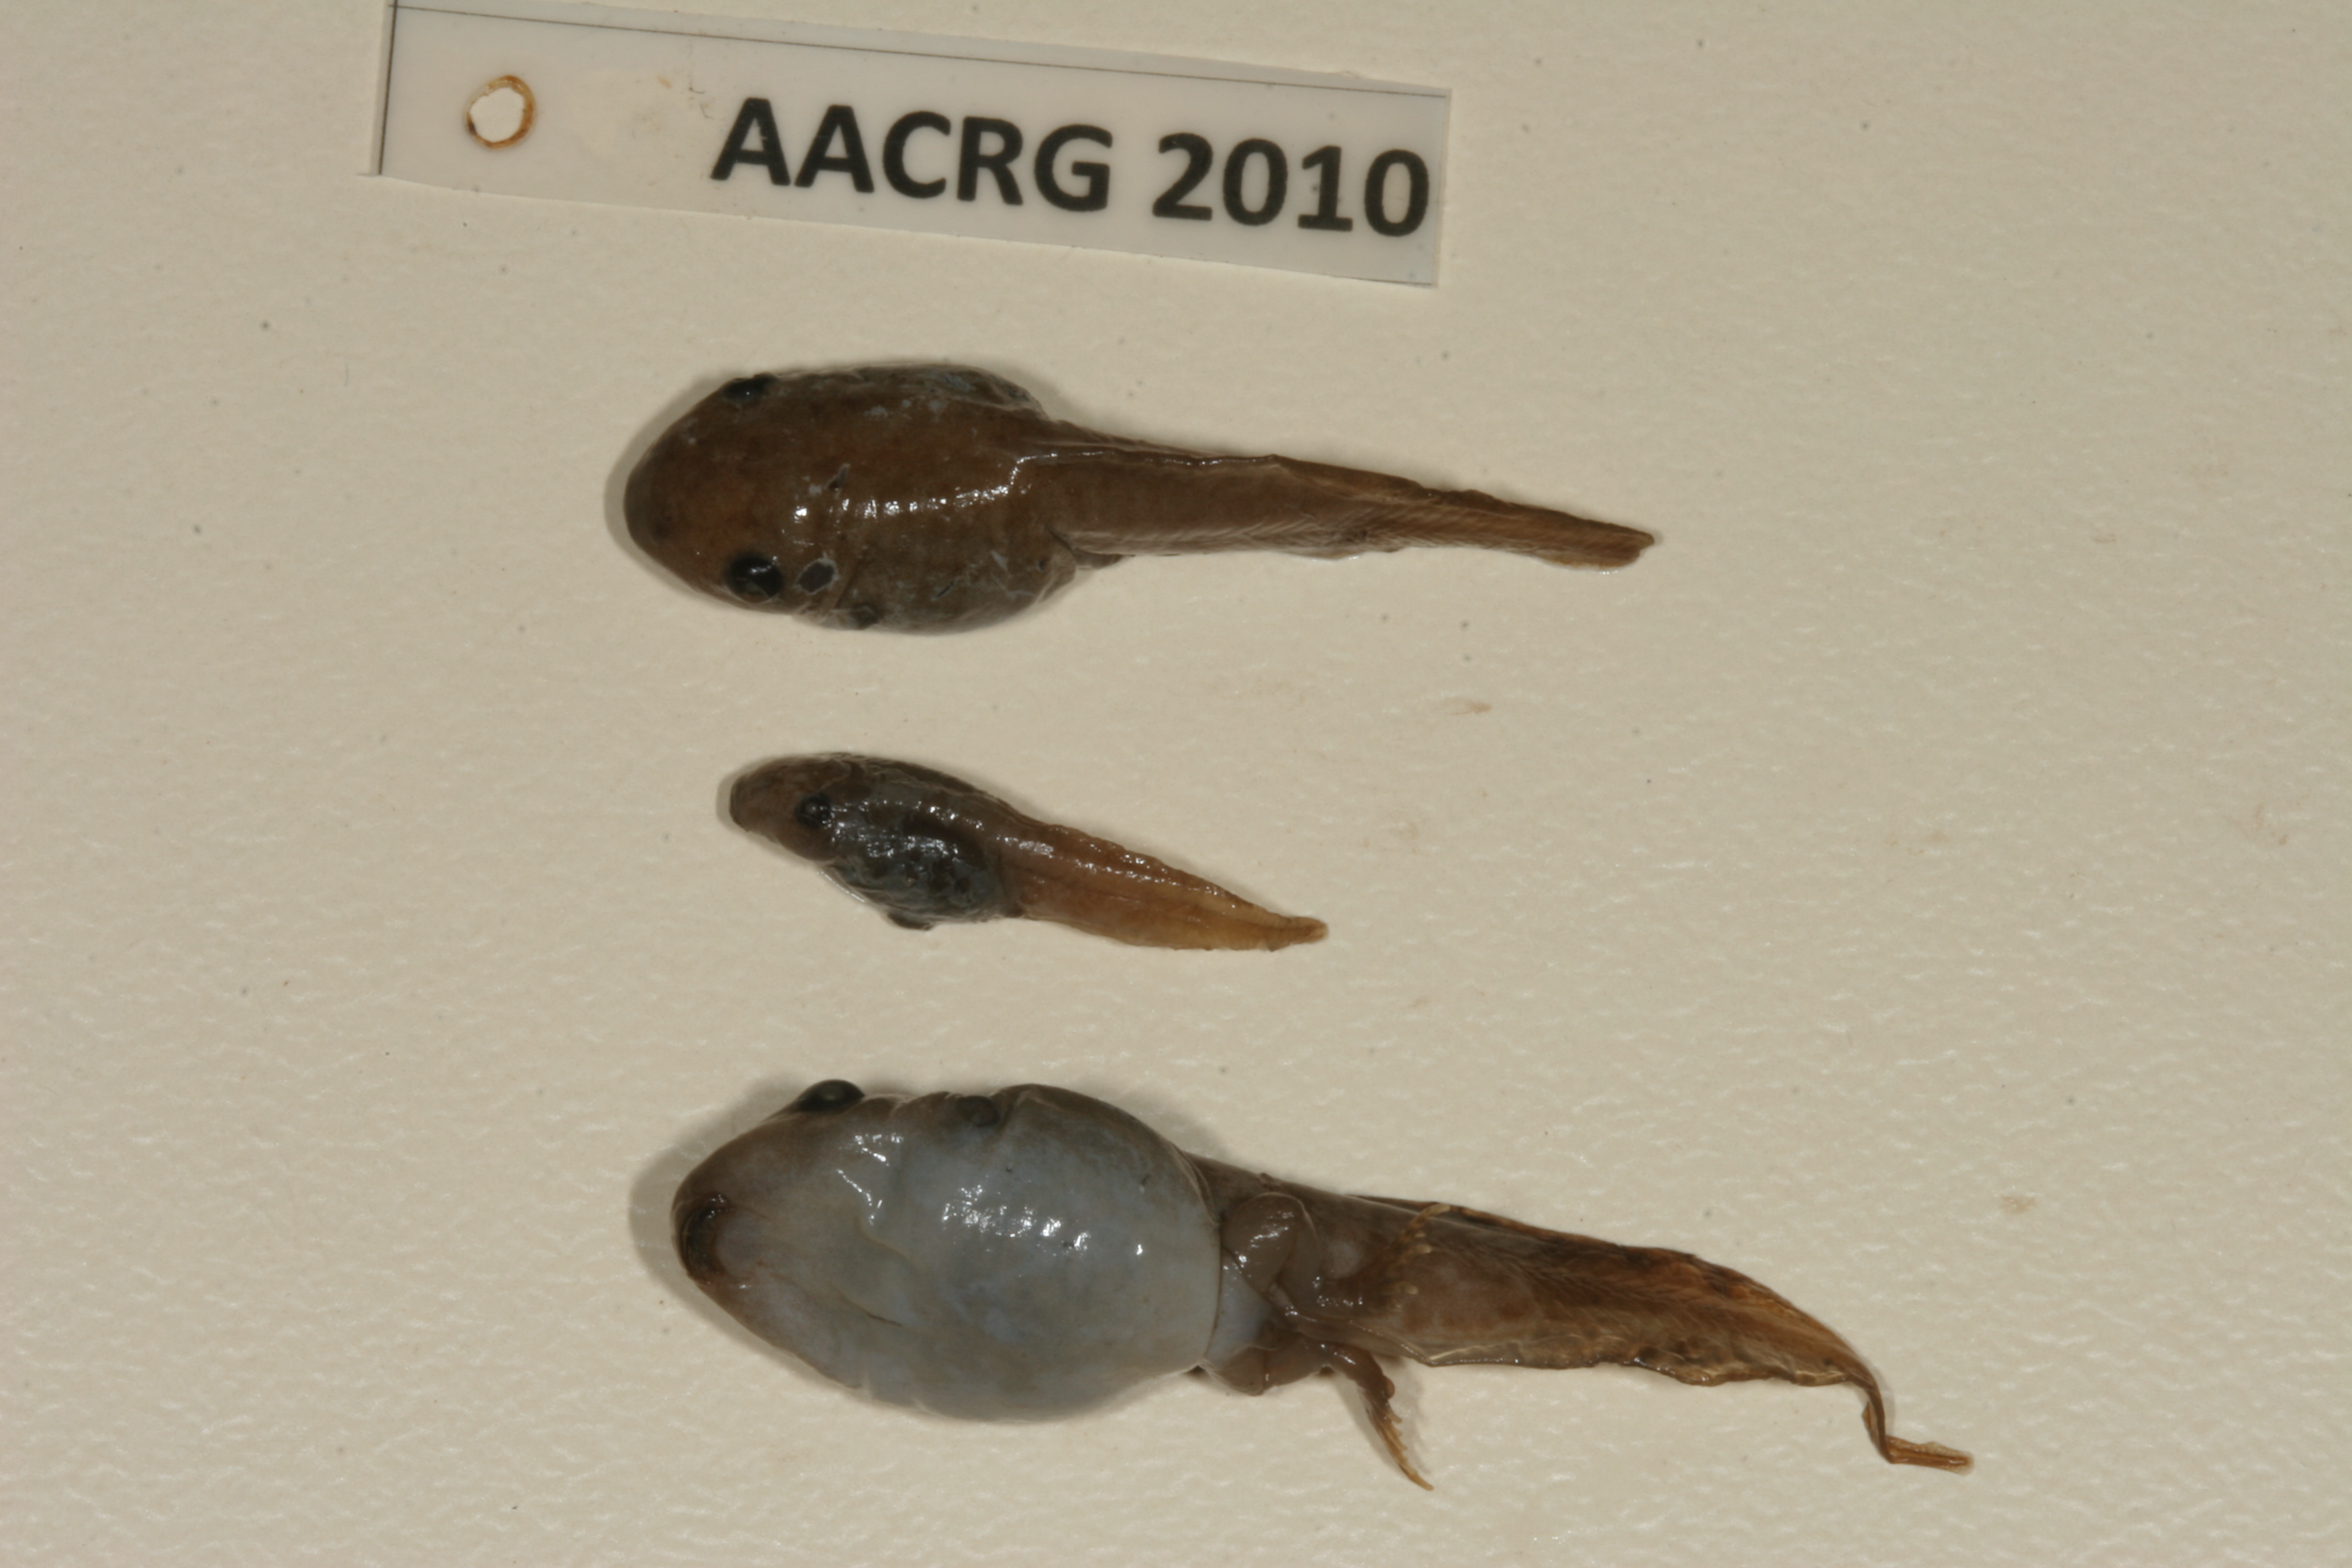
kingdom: Animalia
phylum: Chordata
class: Amphibia
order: Anura
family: Hemisotidae
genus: Hemisus
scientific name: Hemisus marmoratus
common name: Mottled shovel-nosed frog
